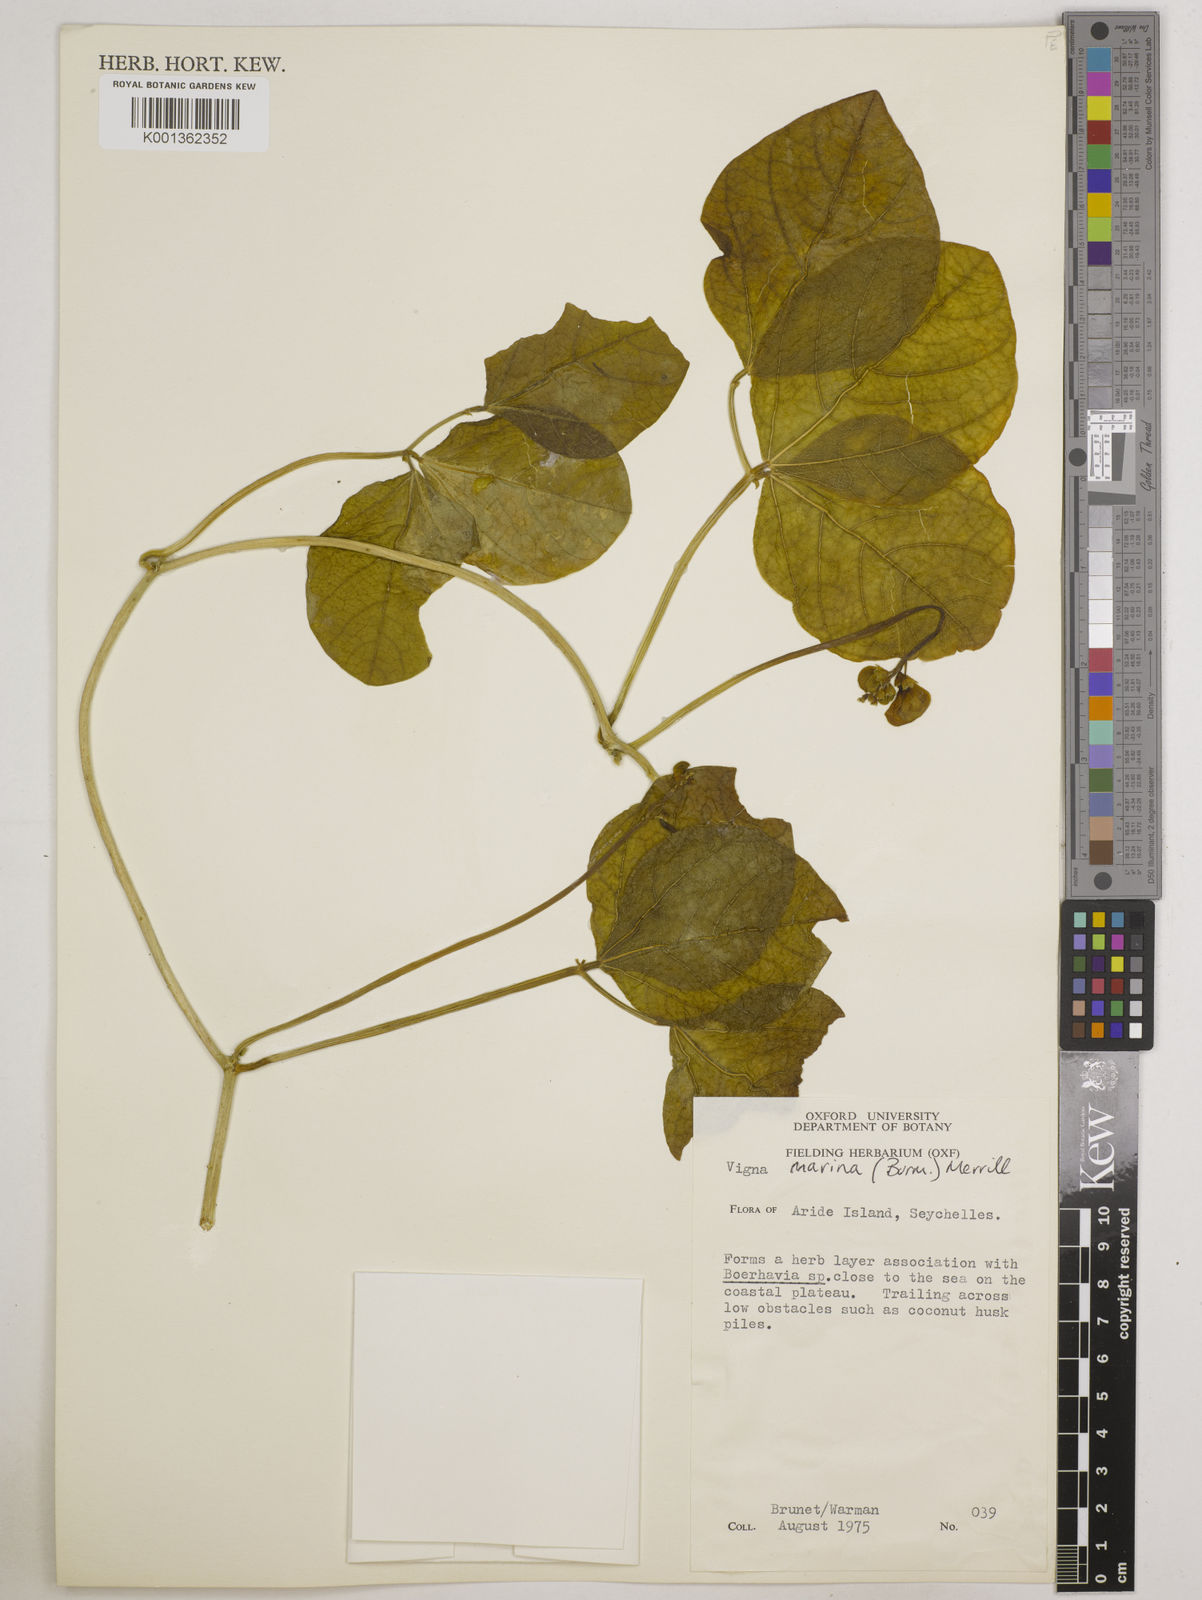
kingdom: Plantae
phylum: Tracheophyta
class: Magnoliopsida
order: Fabales
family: Fabaceae
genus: Vigna
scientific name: Vigna marina
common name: Dune-bean
